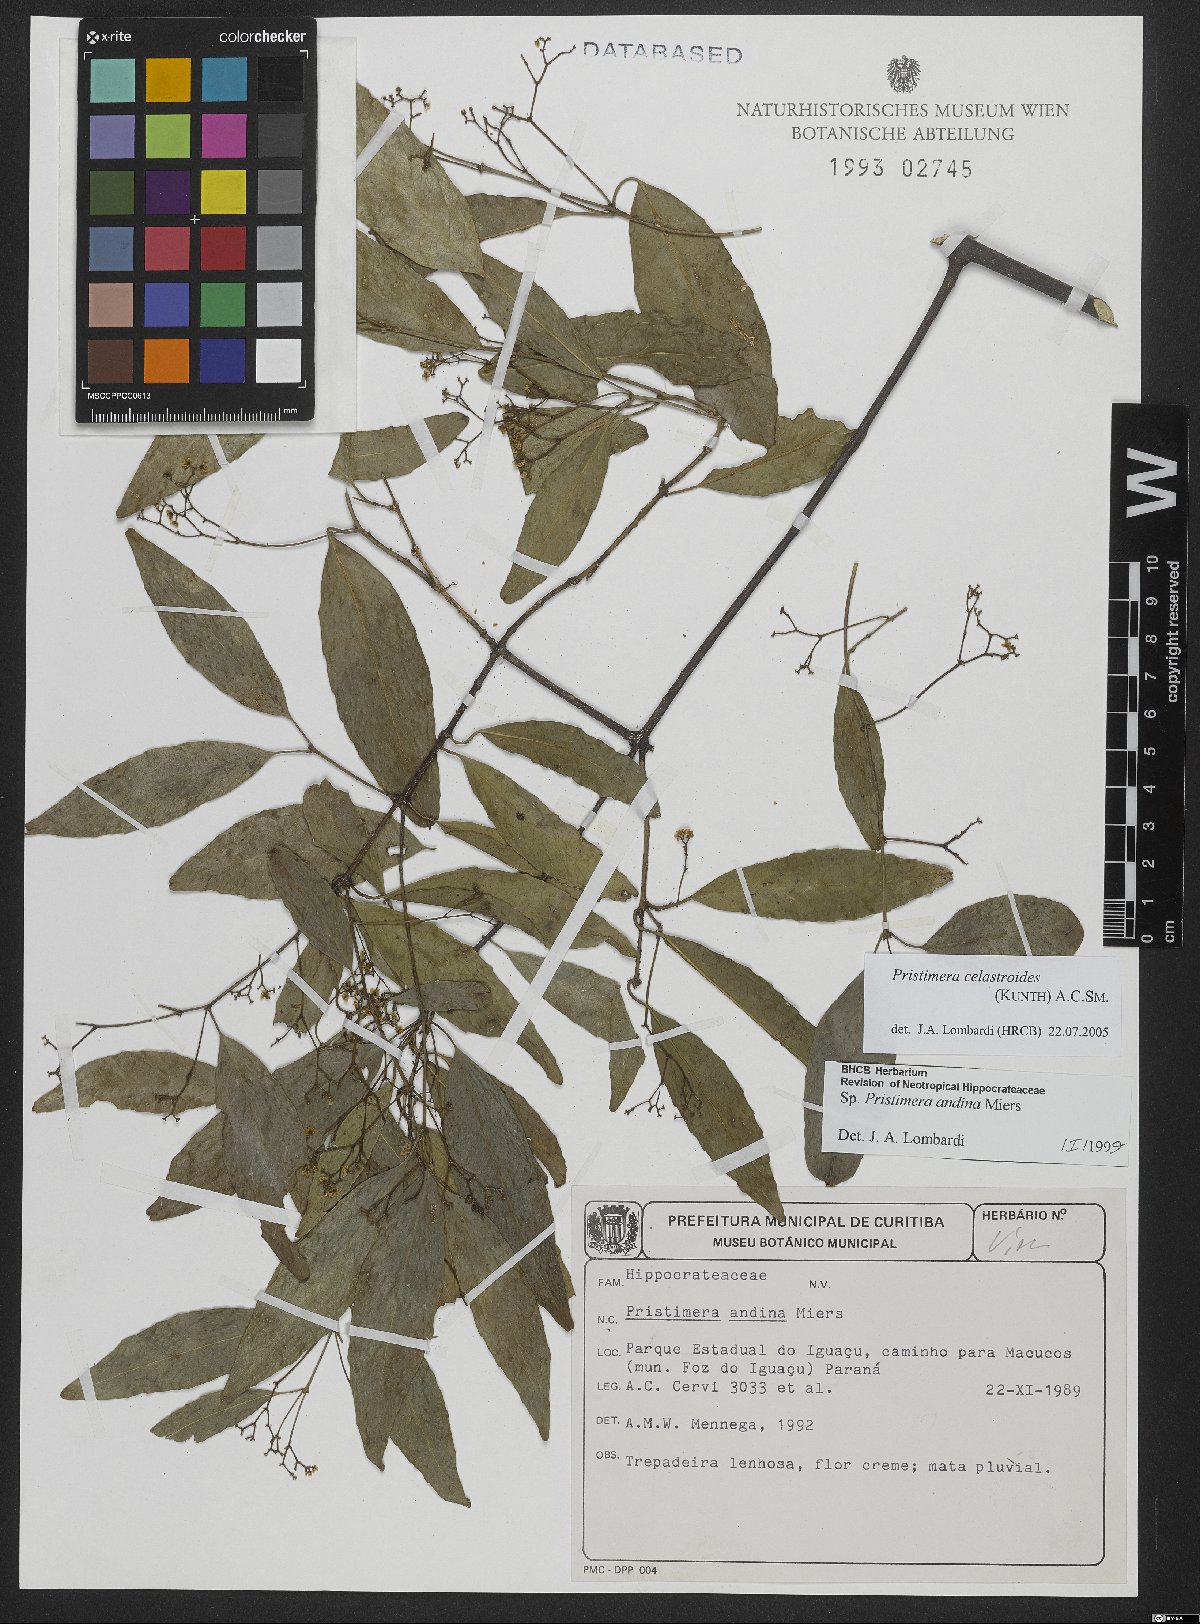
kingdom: Plantae
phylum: Tracheophyta
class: Magnoliopsida
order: Celastrales
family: Celastraceae
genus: Pristimera
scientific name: Pristimera celastroides
